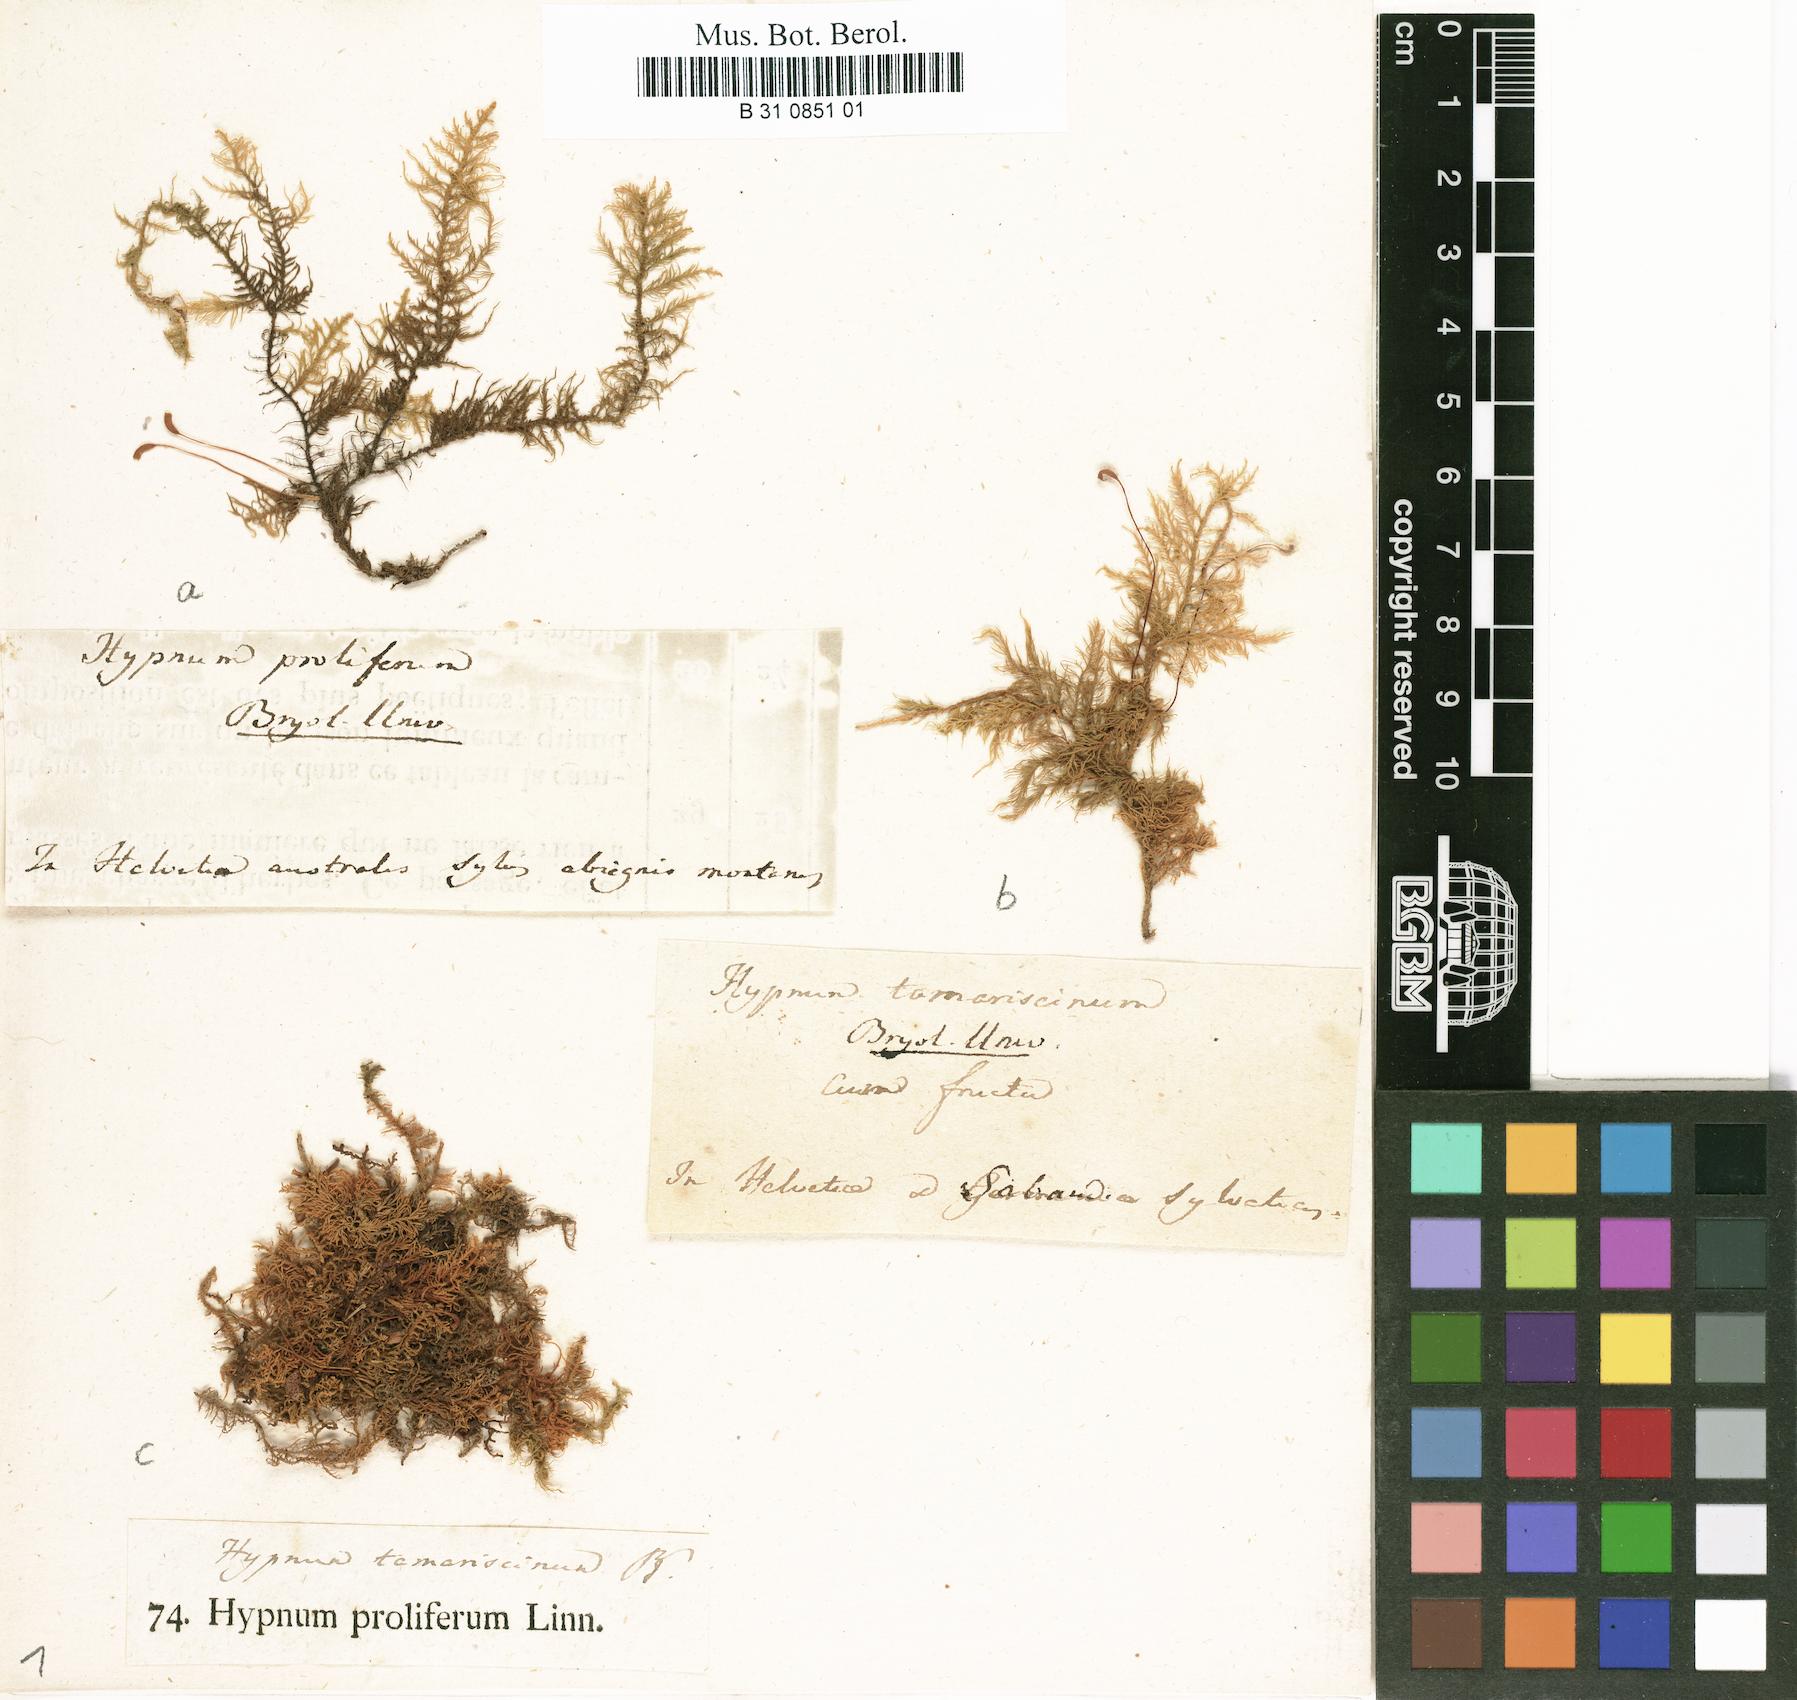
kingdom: Plantae
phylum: Bryophyta
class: Bryopsida
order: Hypnales
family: Thuidiaceae
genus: Thuidium
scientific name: Thuidium tamariscinum
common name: Common tamarisk-moss
